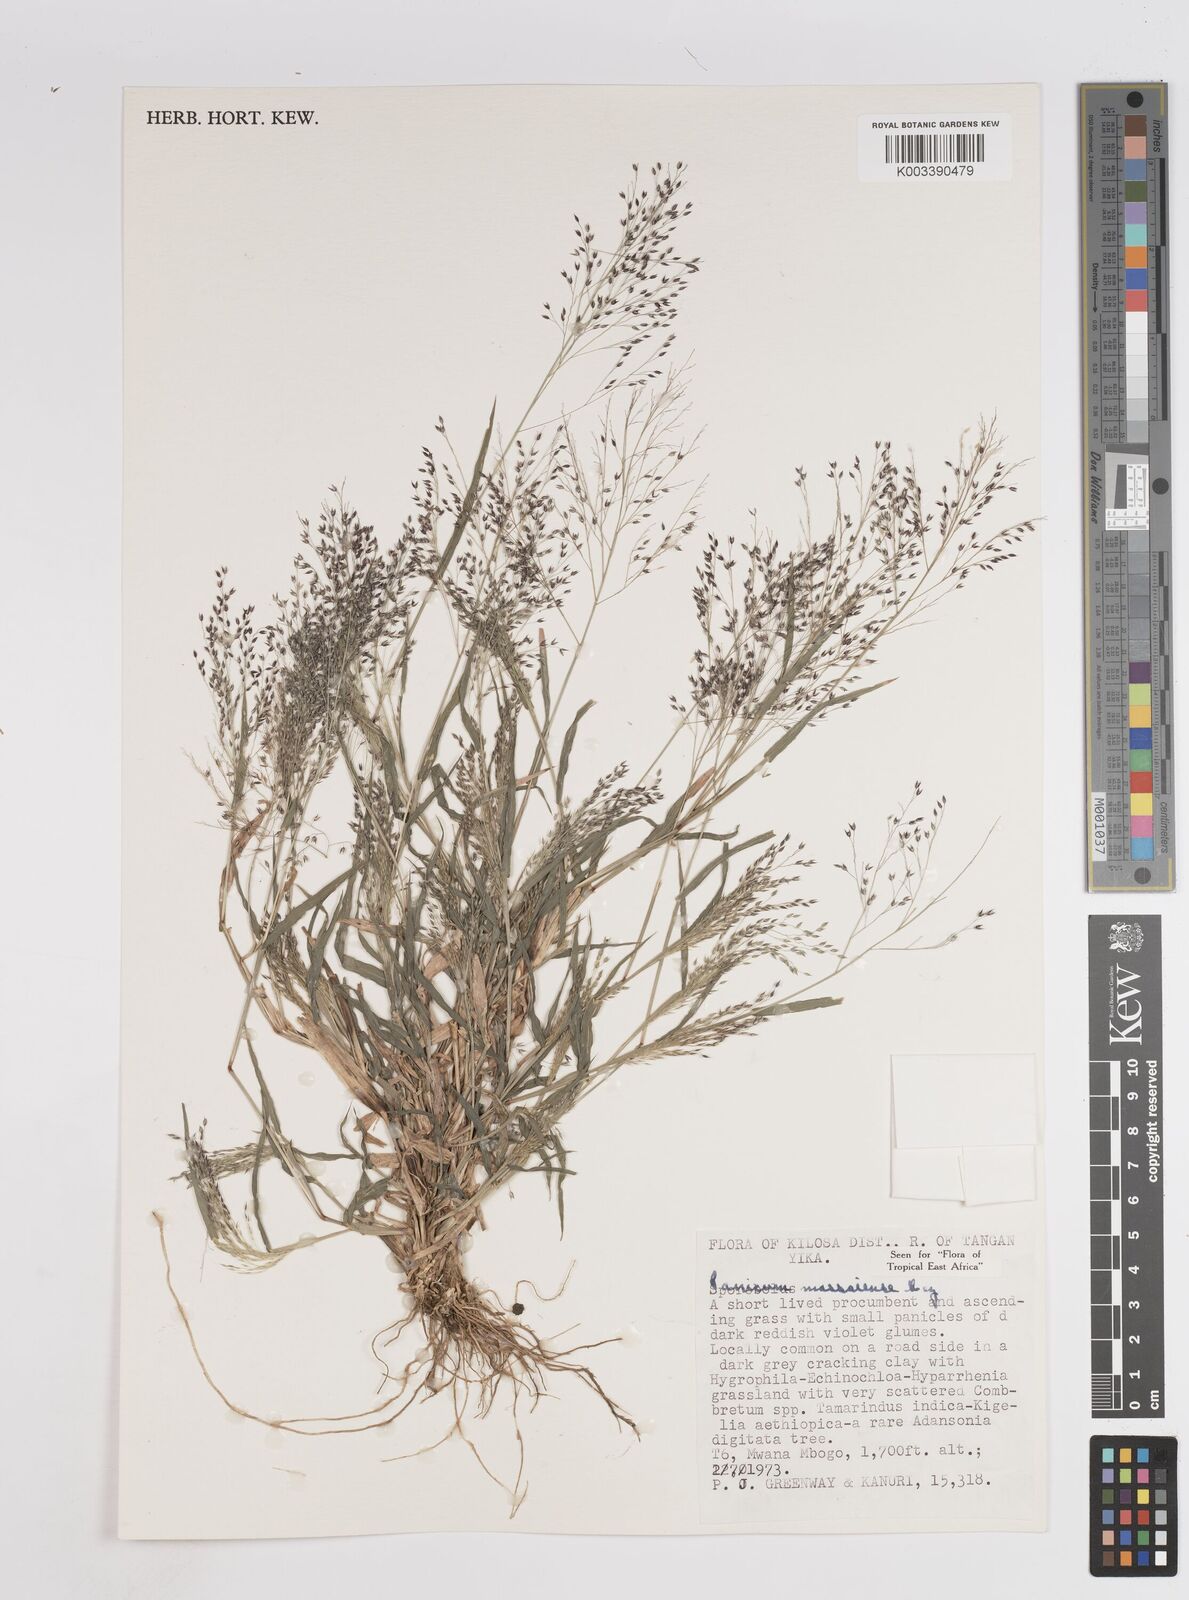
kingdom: Plantae
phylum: Tracheophyta
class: Liliopsida
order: Poales
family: Poaceae
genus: Panicum
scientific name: Panicum massaiense
